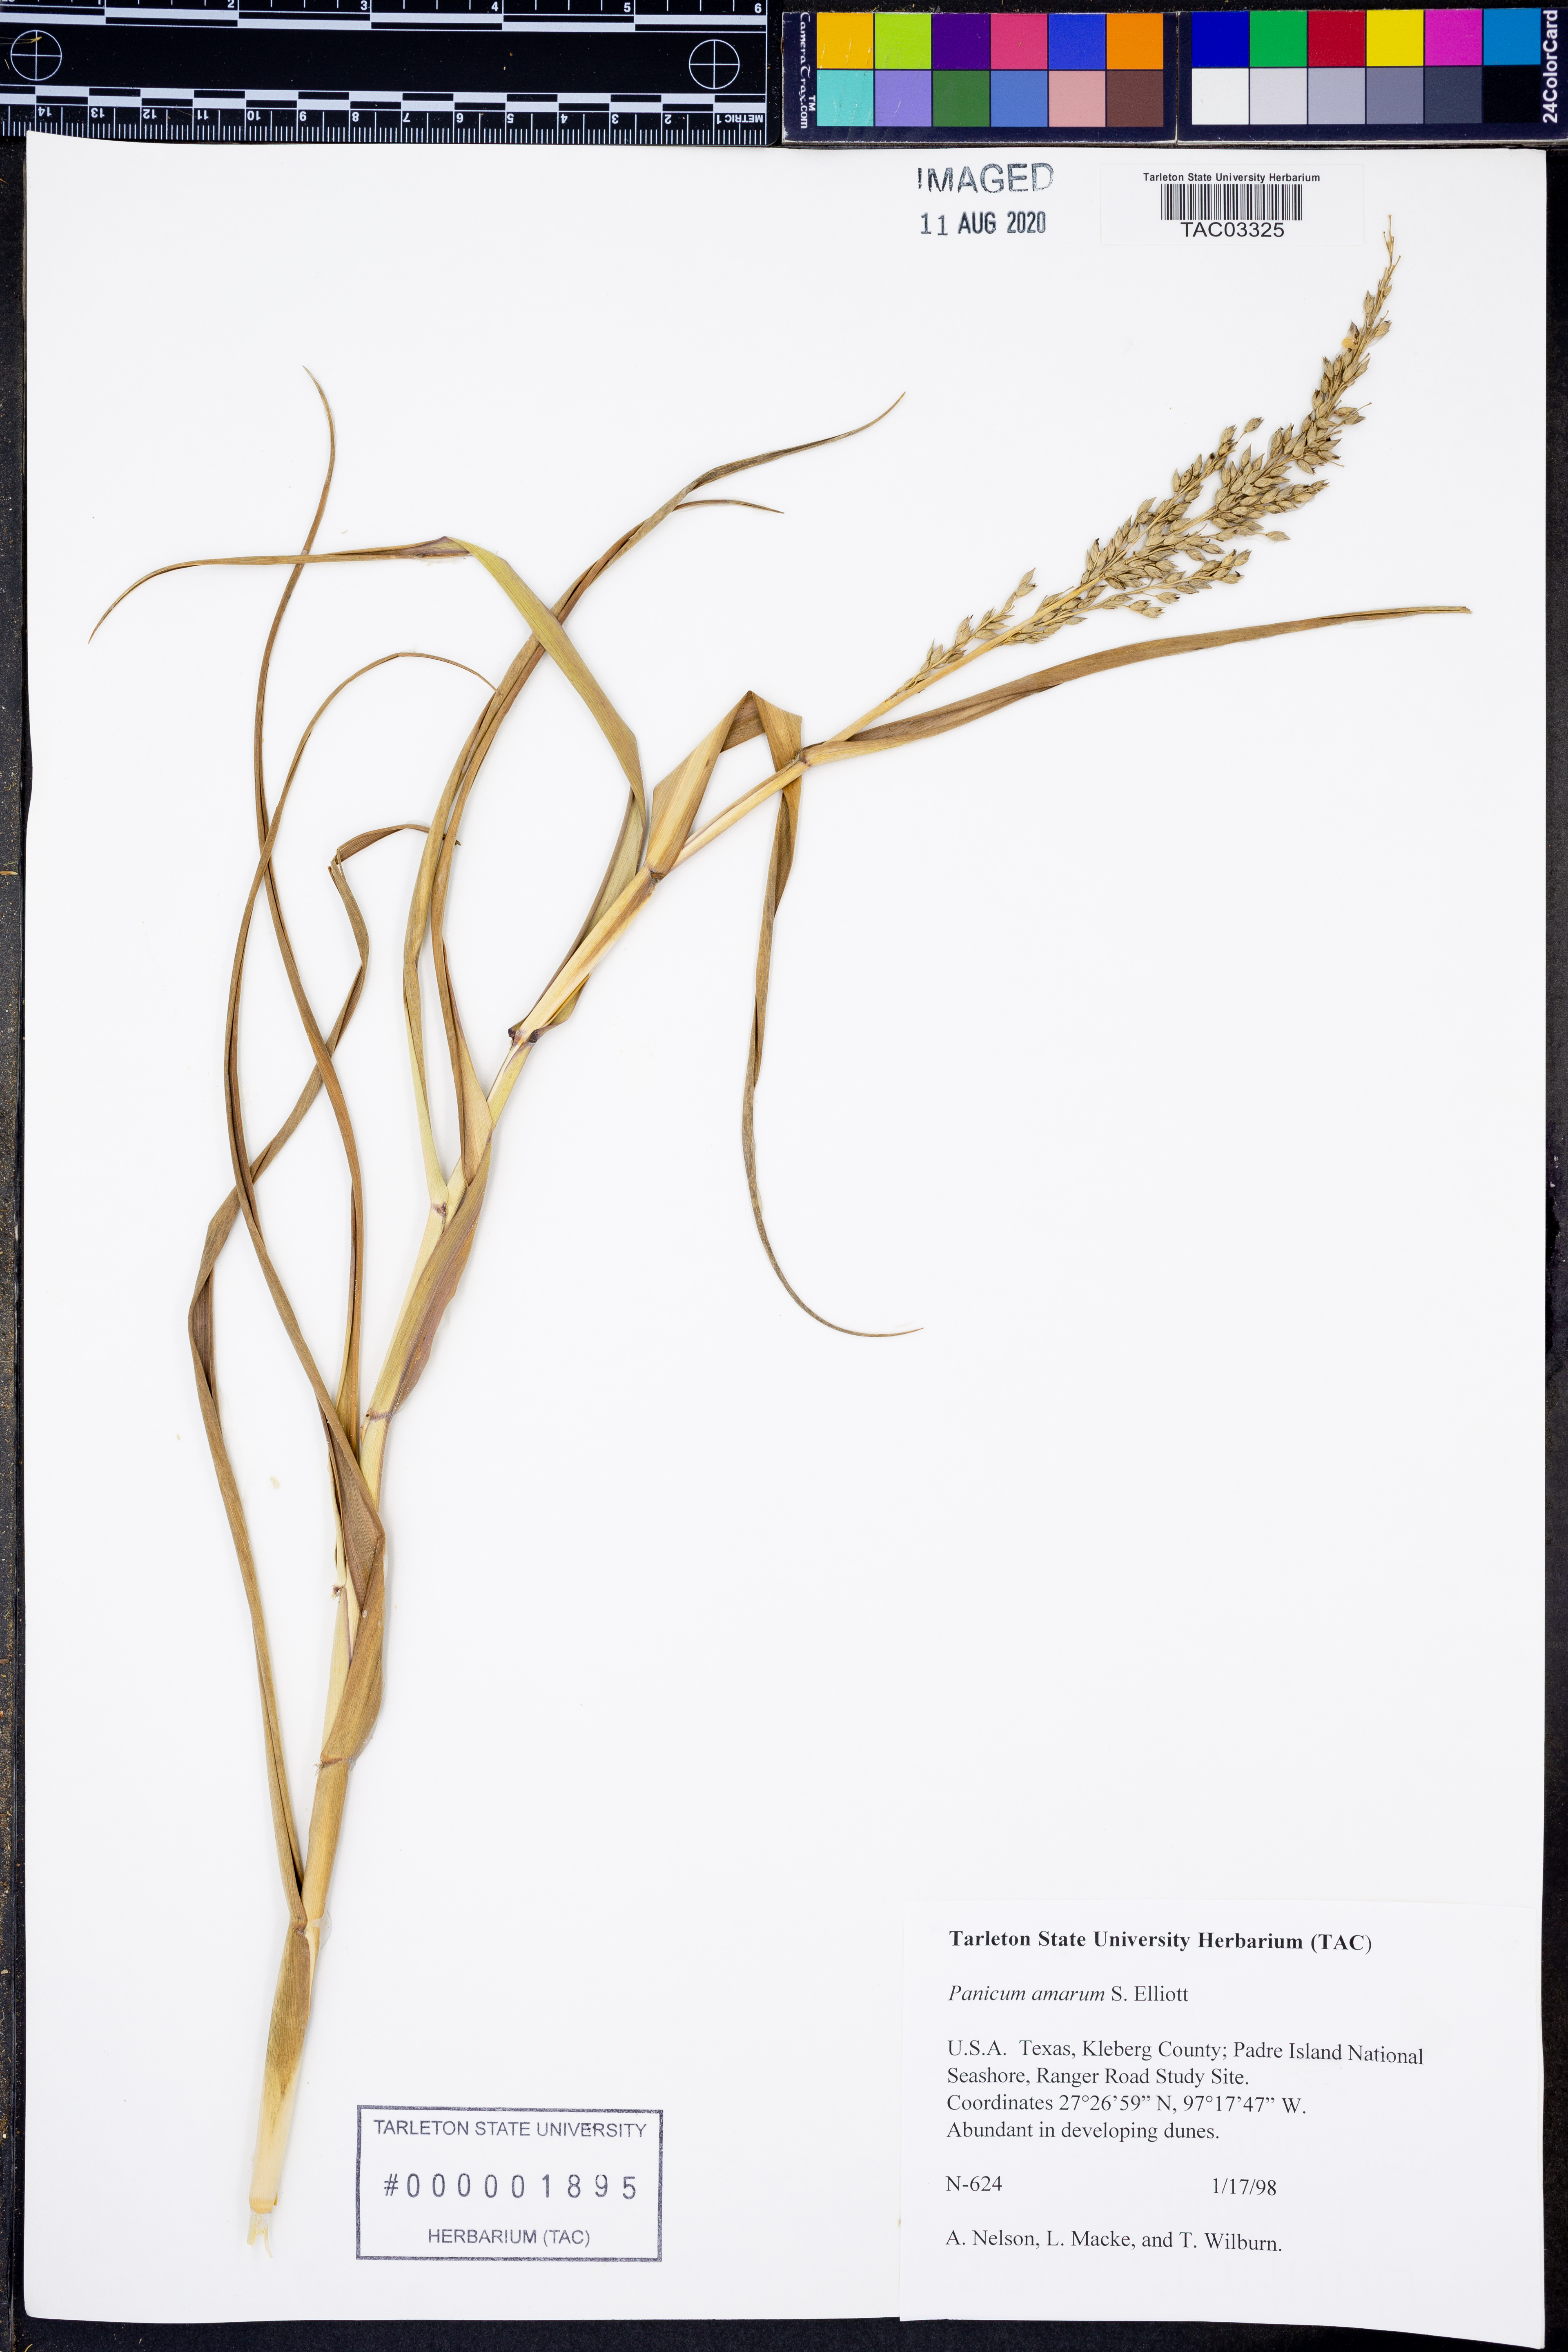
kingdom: Plantae
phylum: Tracheophyta
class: Liliopsida
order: Poales
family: Poaceae
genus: Panicum
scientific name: Panicum amarum
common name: Bitter panicum
